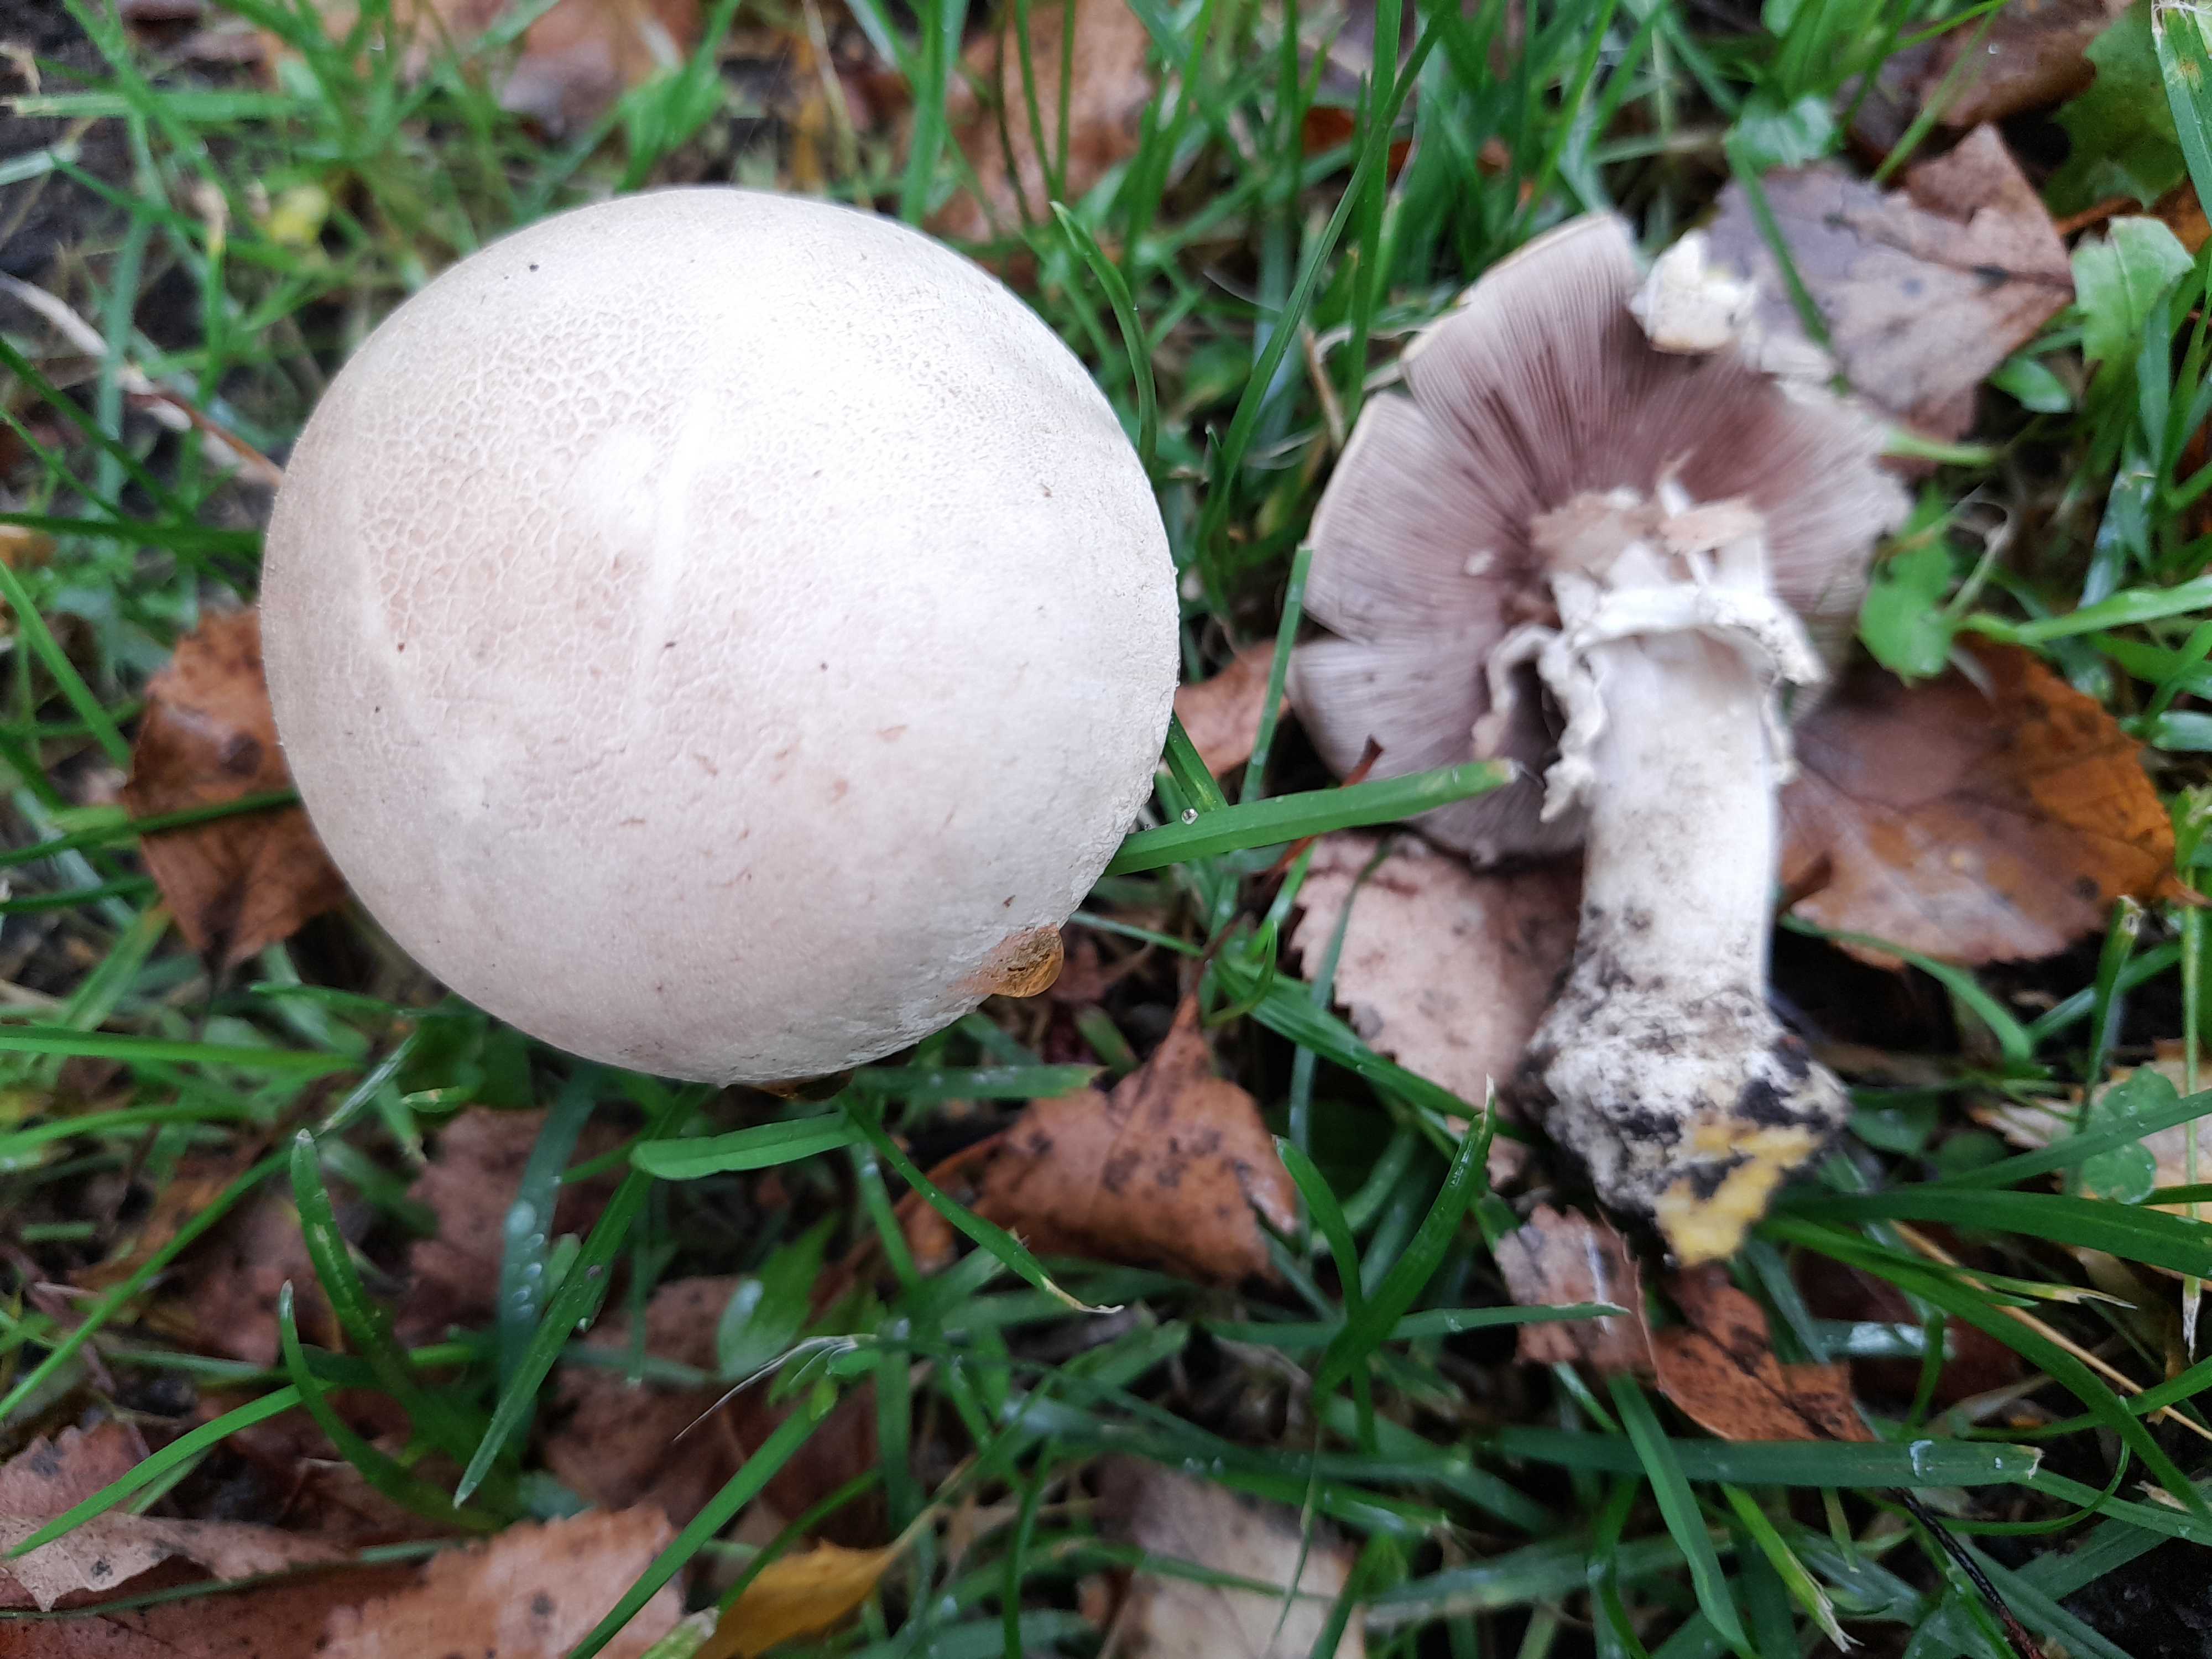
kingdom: Fungi
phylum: Basidiomycota
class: Agaricomycetes
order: Agaricales
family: Agaricaceae
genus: Agaricus
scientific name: Agaricus xanthodermus
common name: karbol-champignon
